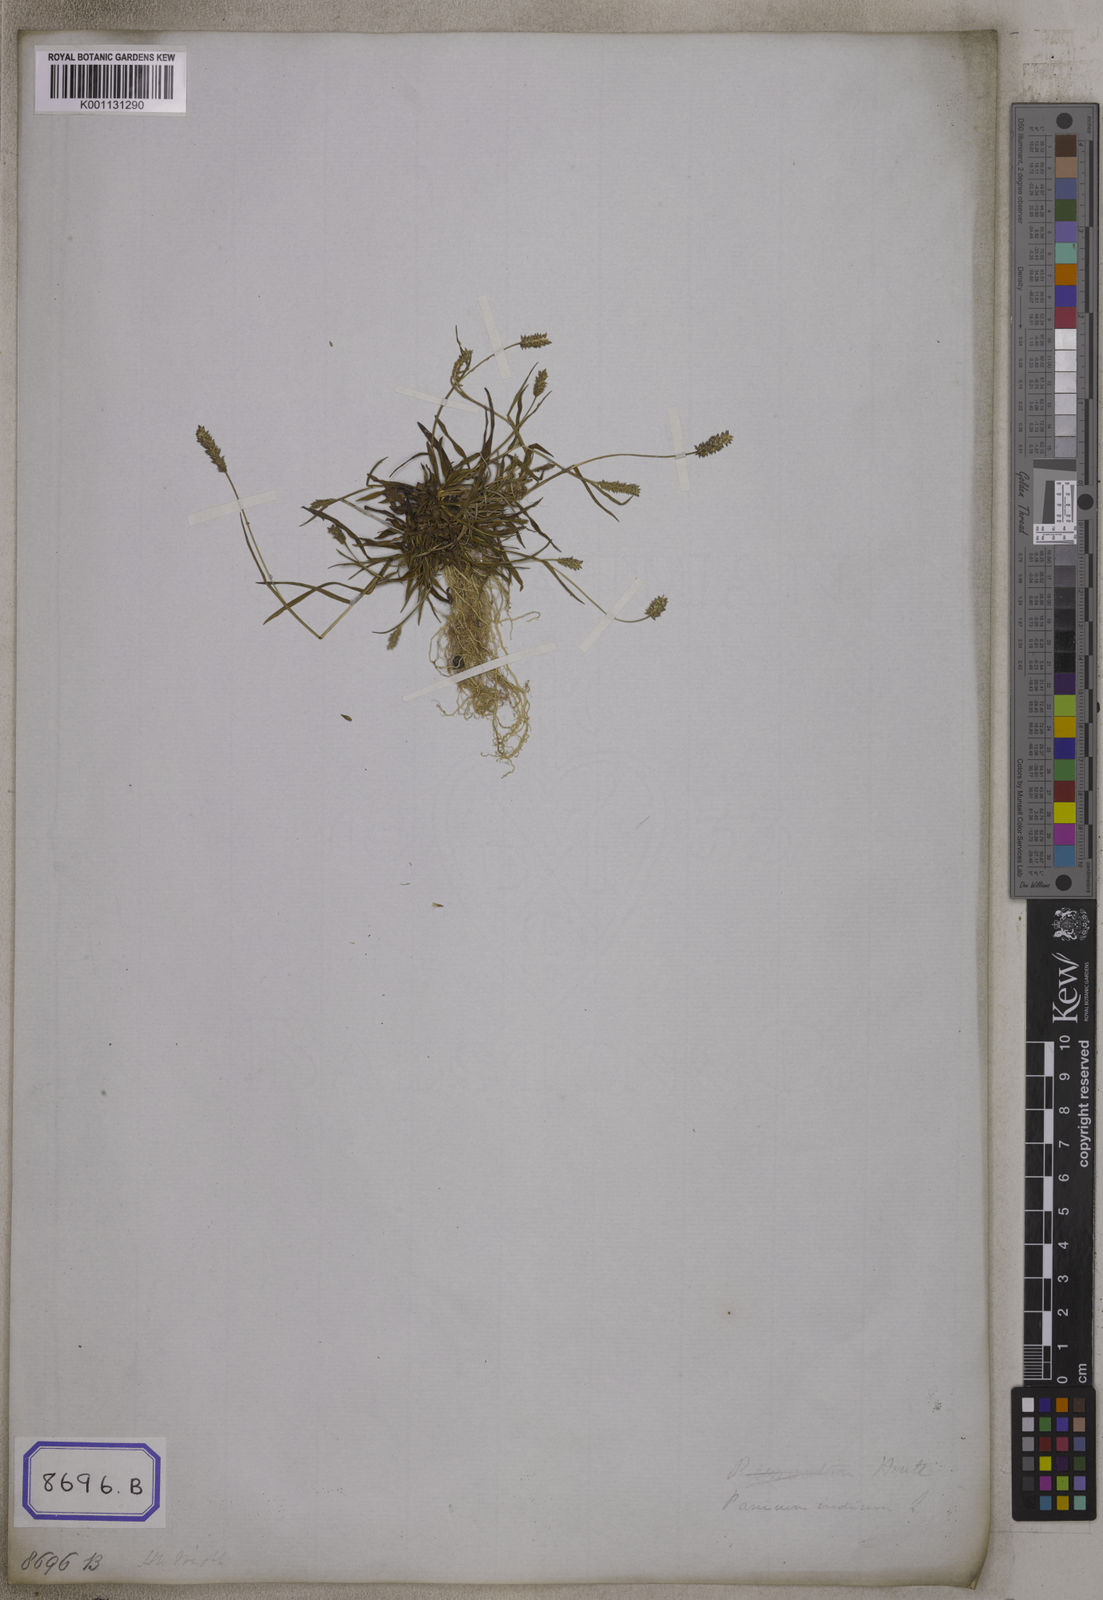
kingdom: Plantae
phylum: Tracheophyta
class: Liliopsida
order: Poales
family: Poaceae
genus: Panicum
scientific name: Panicum
